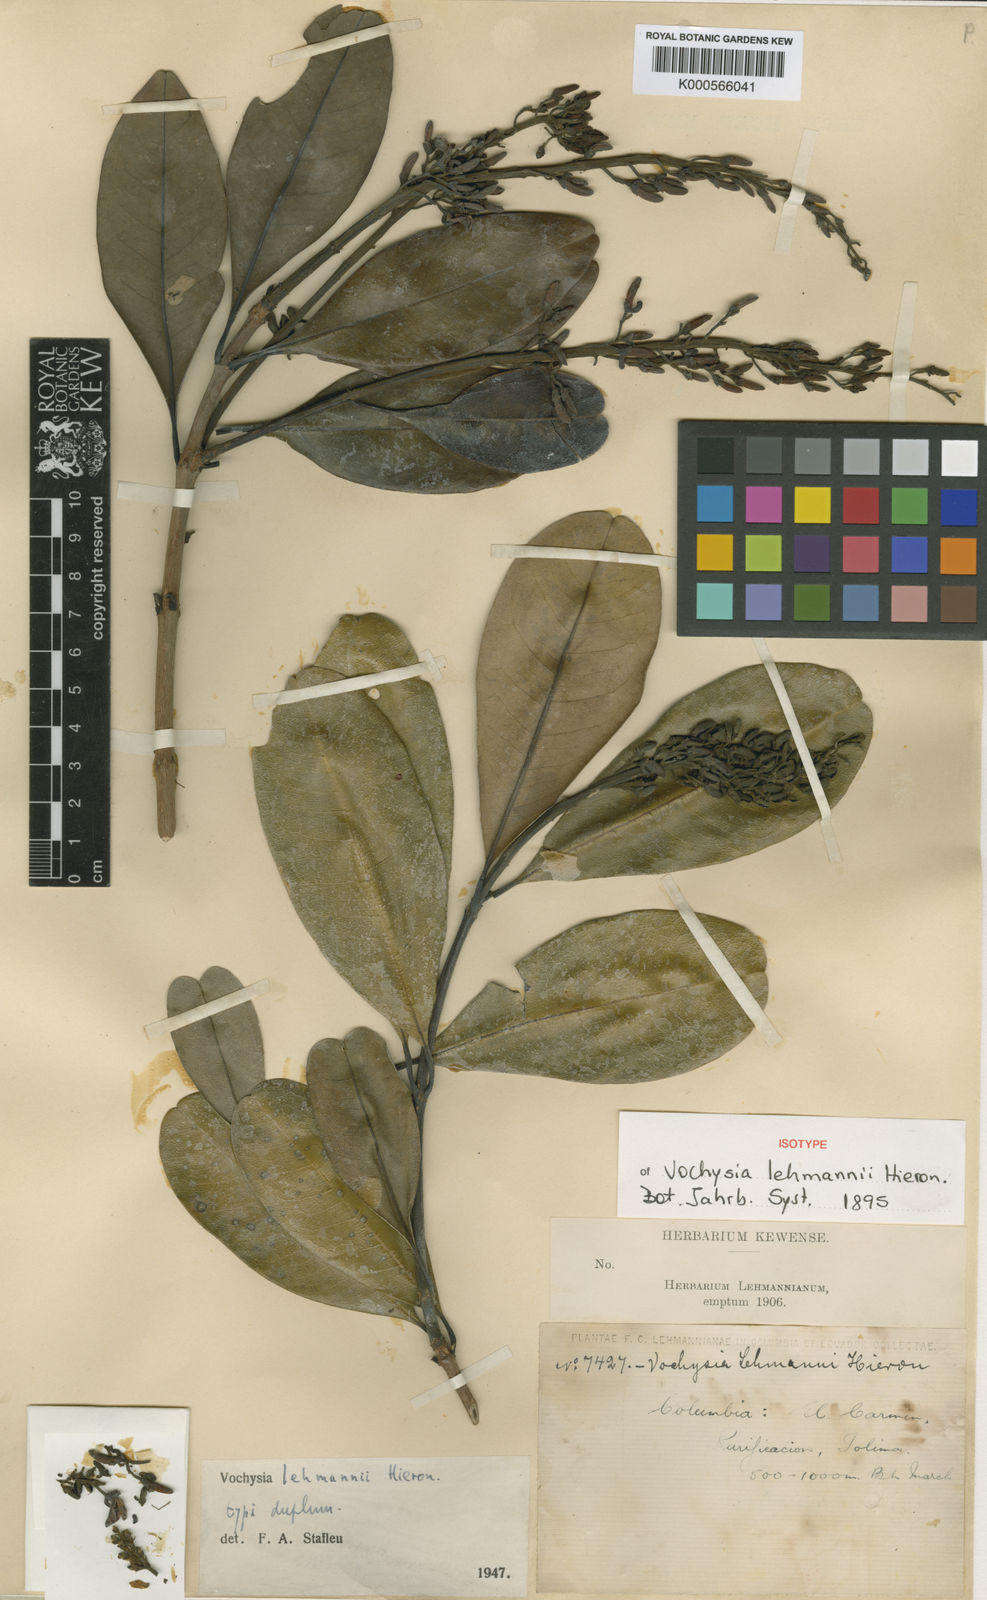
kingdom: Plantae
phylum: Tracheophyta
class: Magnoliopsida
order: Myrtales
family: Vochysiaceae
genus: Vochysia
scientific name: Vochysia lehmannii
